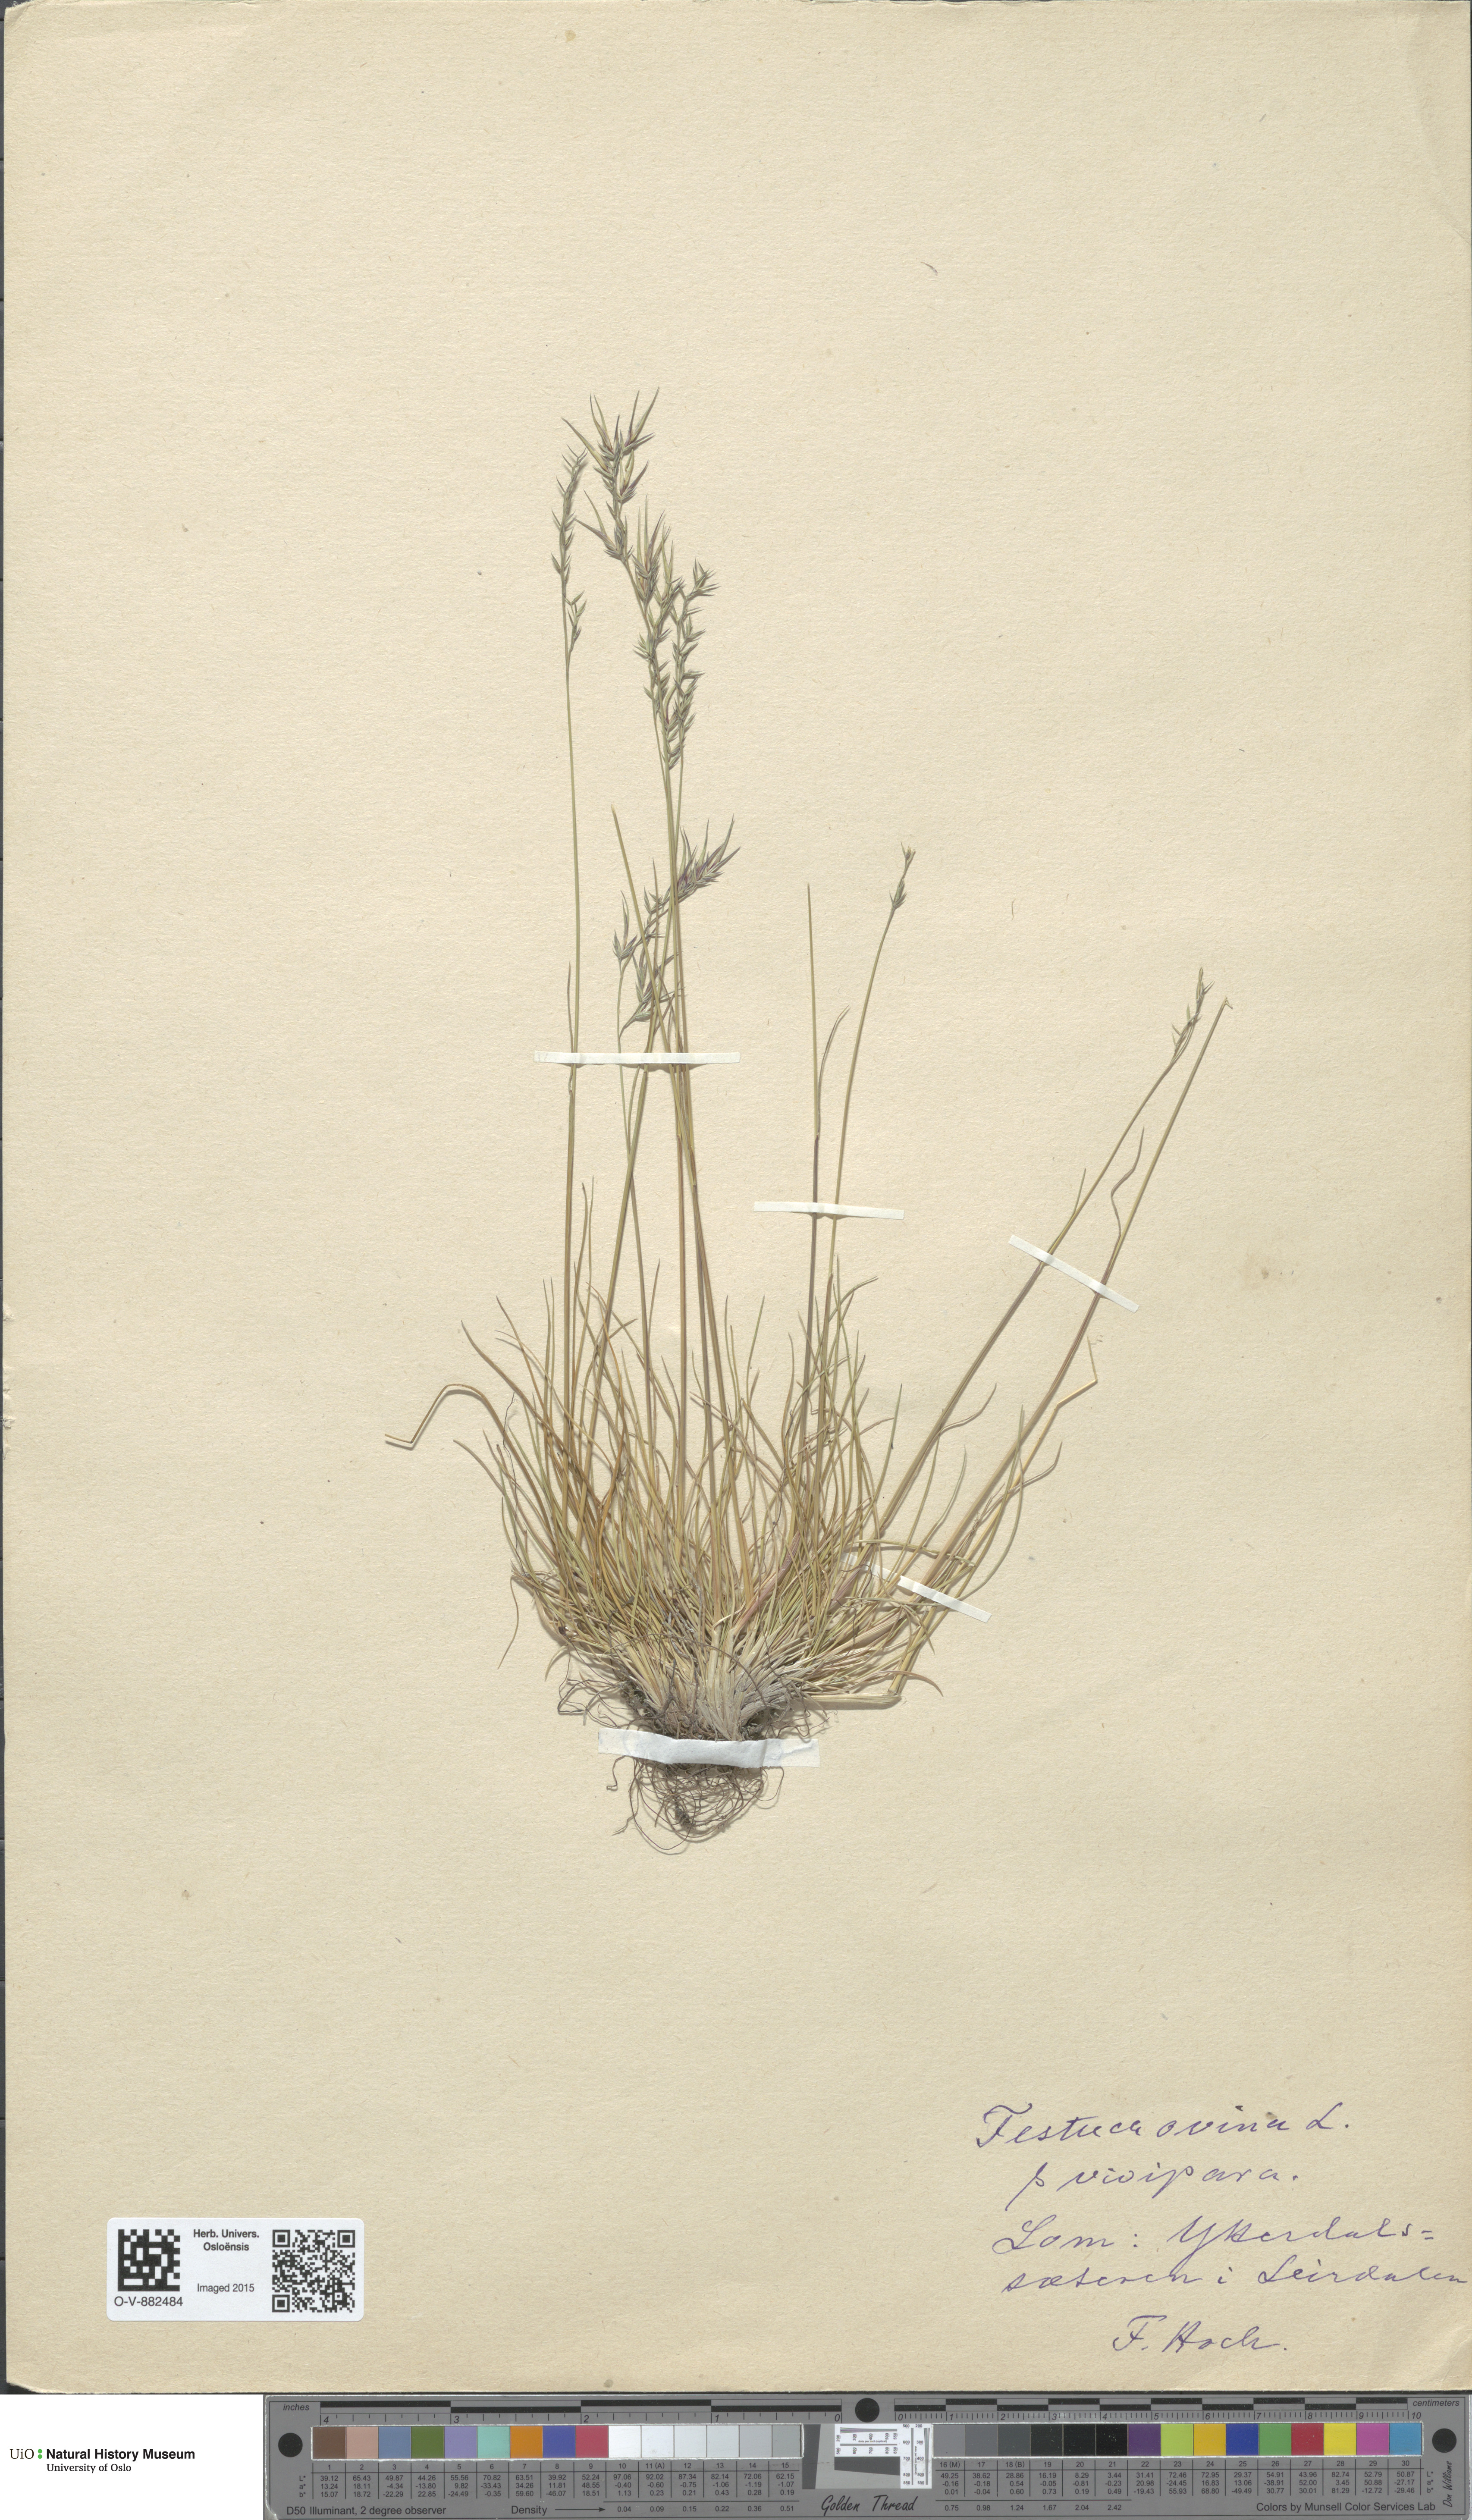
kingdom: Plantae
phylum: Tracheophyta
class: Liliopsida
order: Poales
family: Poaceae
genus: Festuca
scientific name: Festuca vivipara
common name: Viviparous sheep's-fescue
